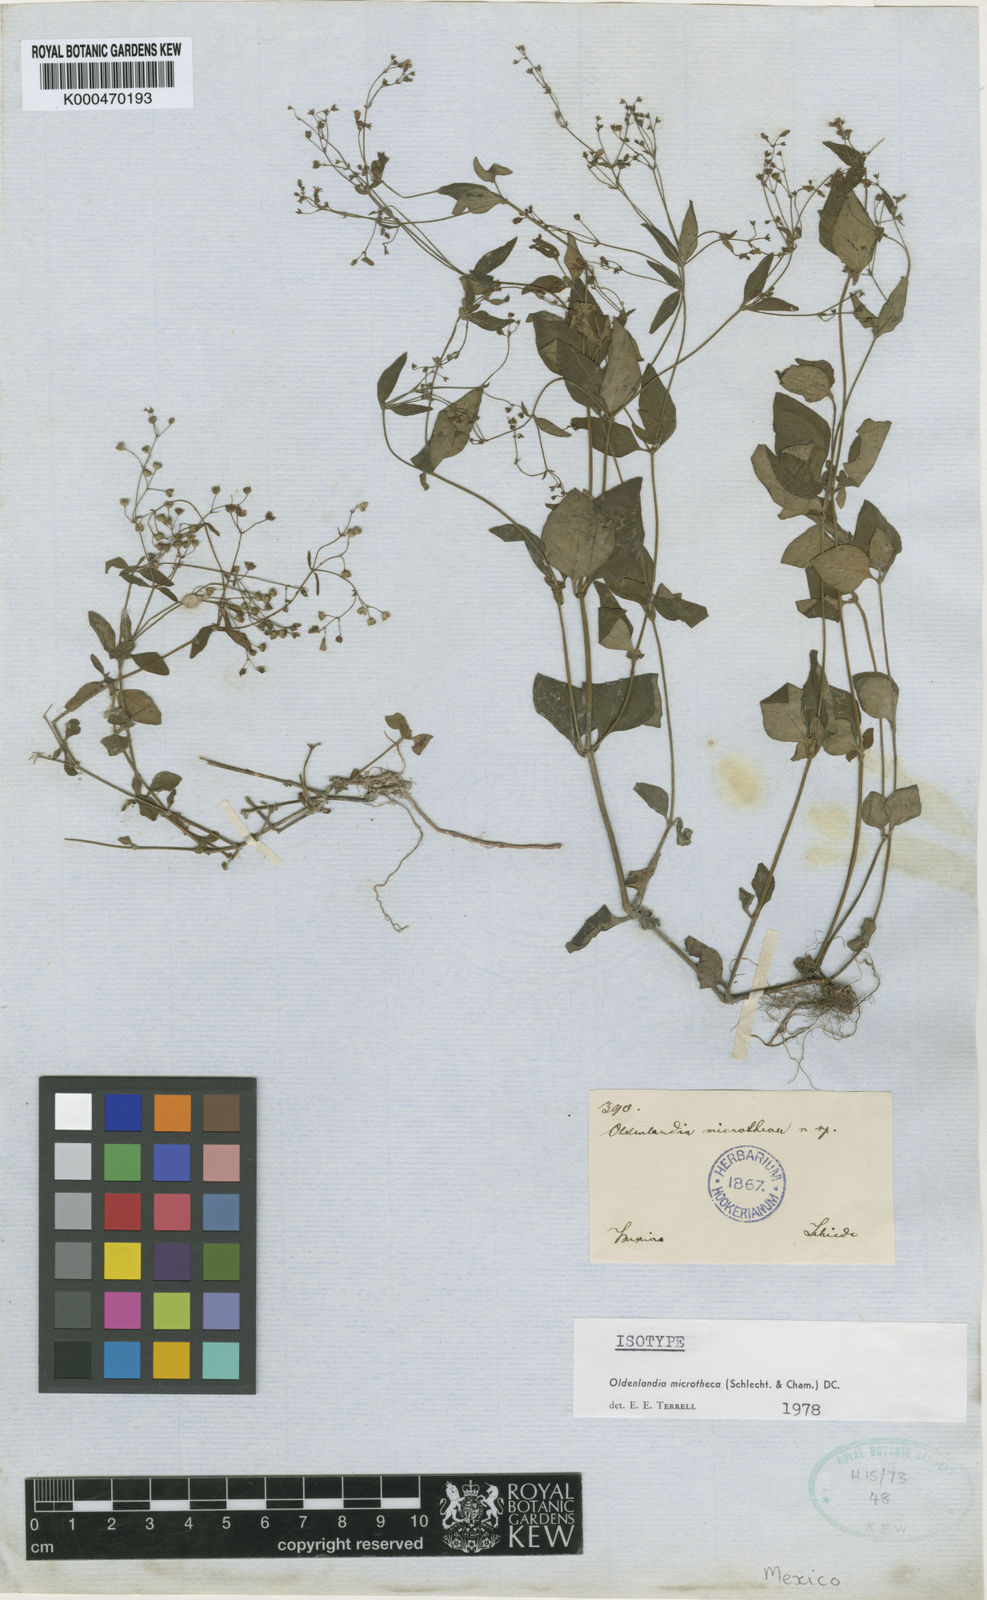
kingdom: Plantae
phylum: Tracheophyta
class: Magnoliopsida
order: Gentianales
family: Rubiaceae
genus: Oldenlandia
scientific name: Oldenlandia microtheca
